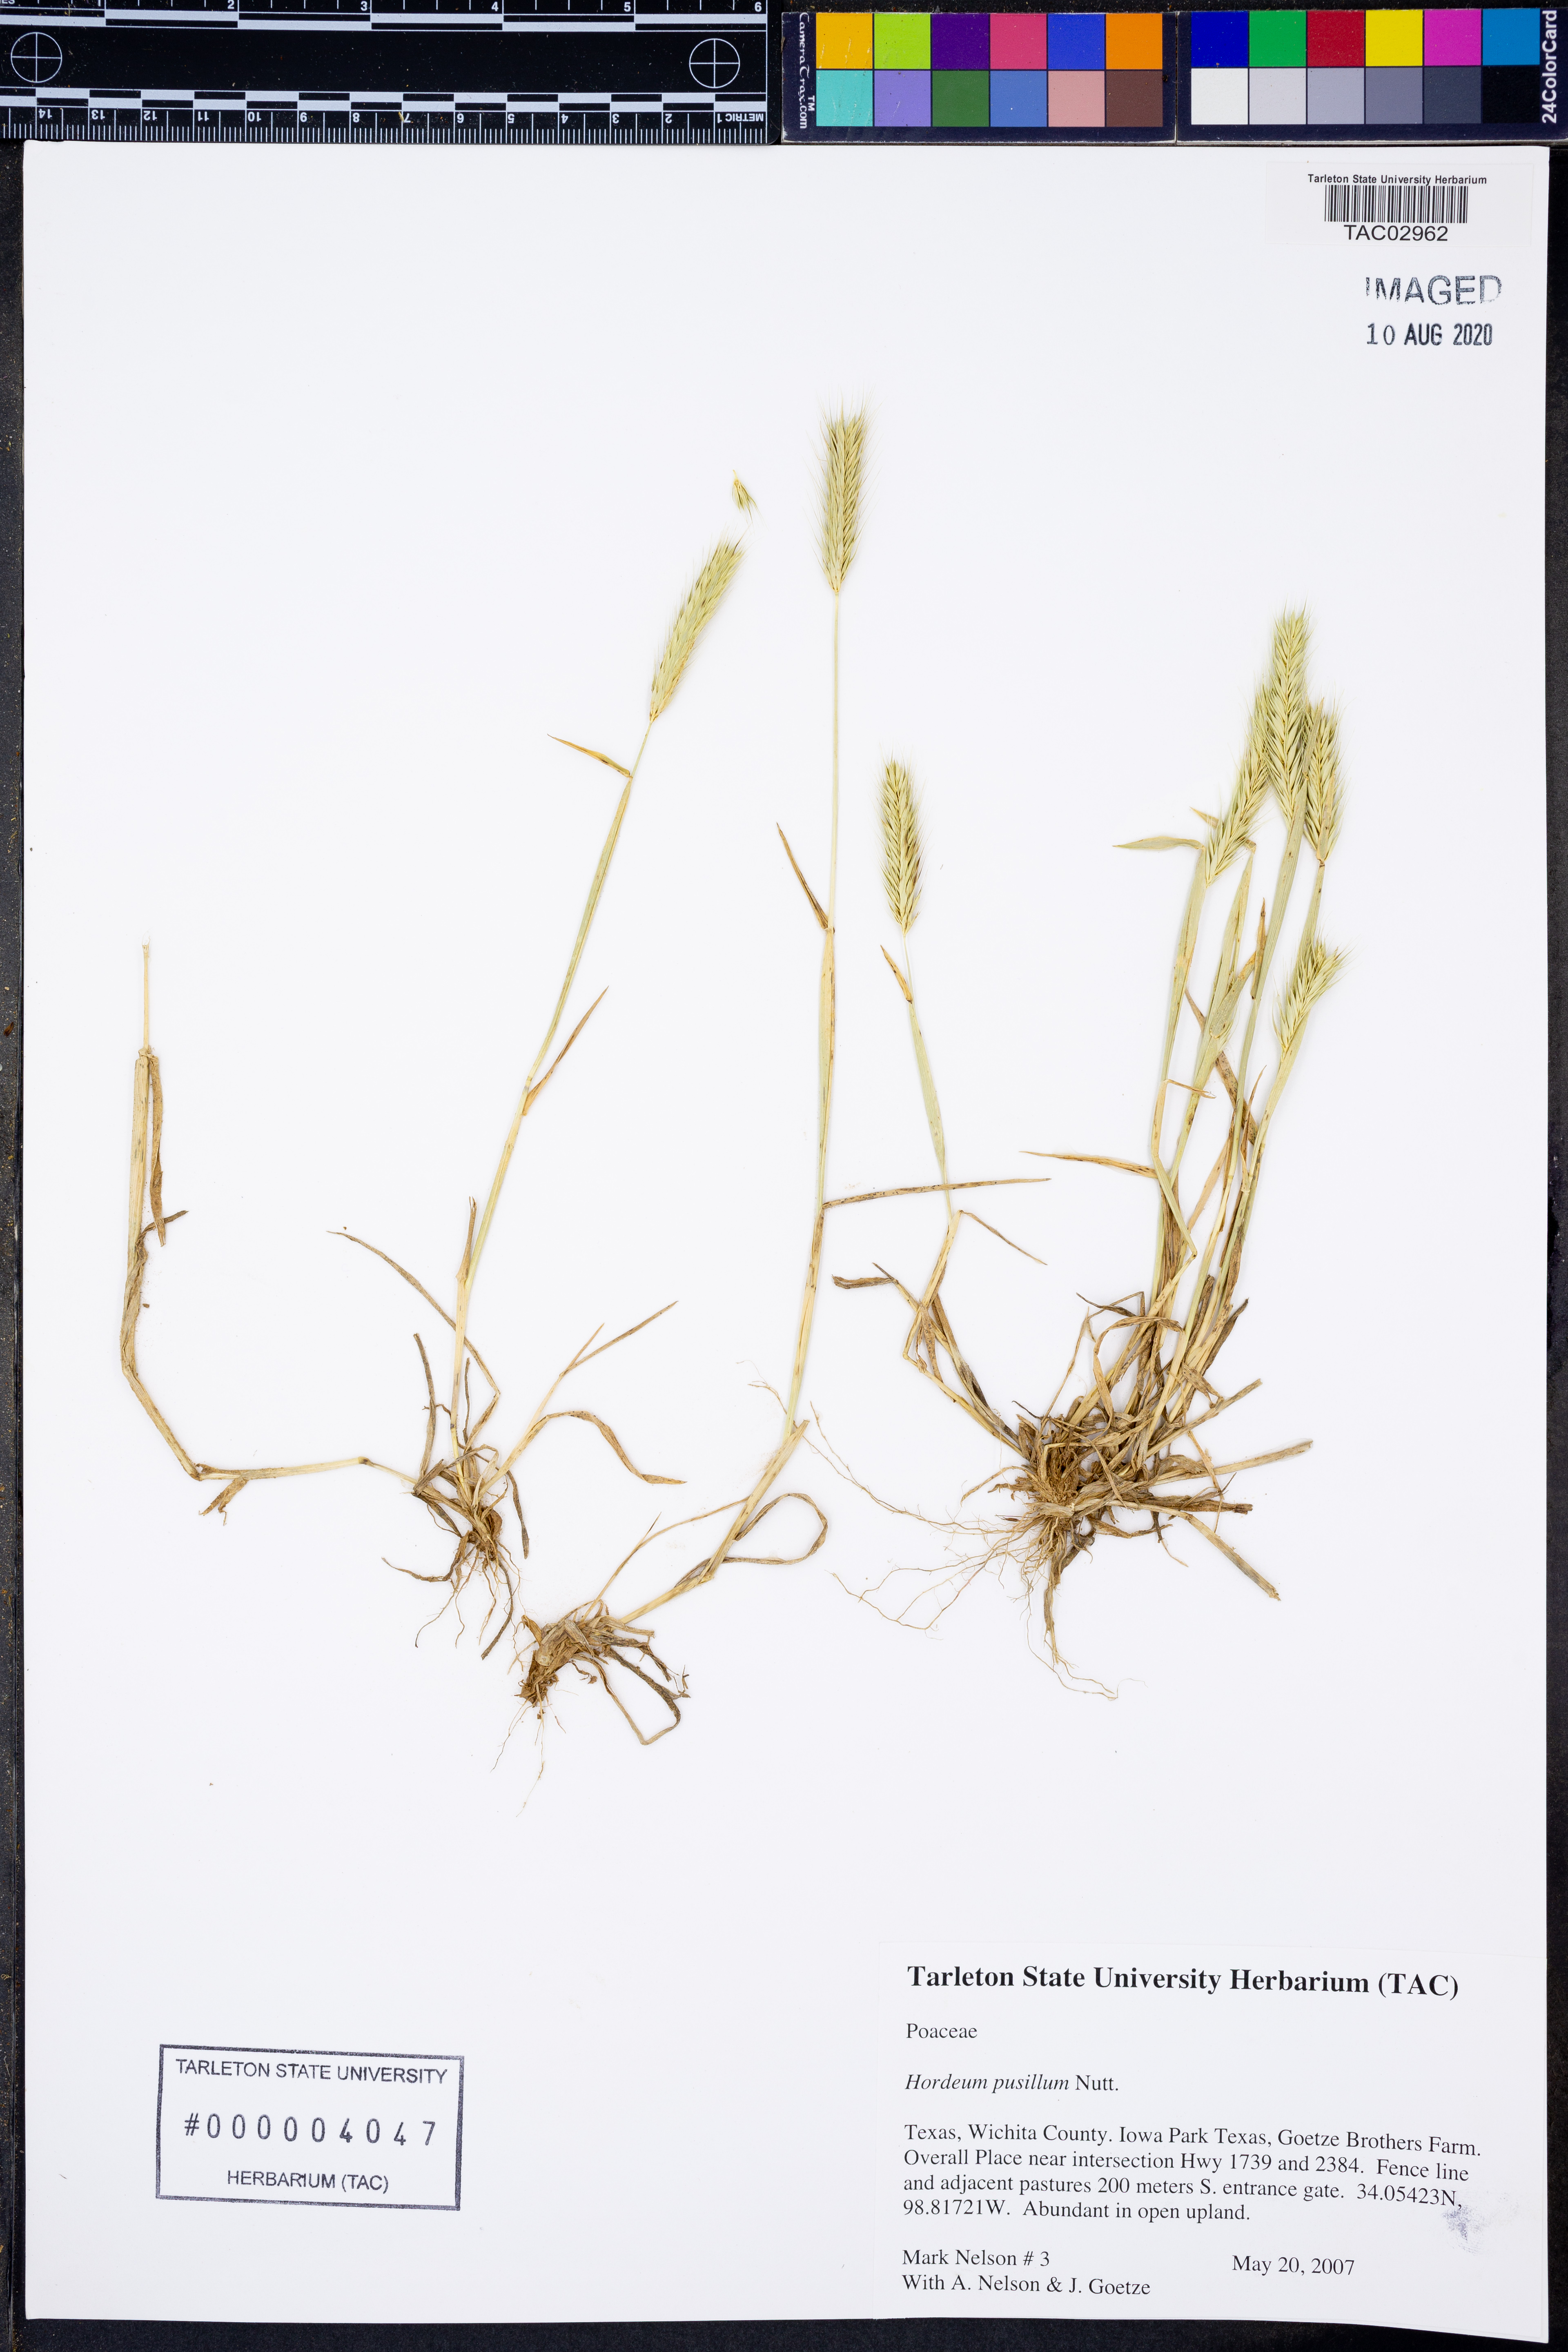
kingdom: Plantae
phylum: Tracheophyta
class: Liliopsida
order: Poales
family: Poaceae
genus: Hordeum
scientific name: Hordeum pusillum
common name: Little barley
